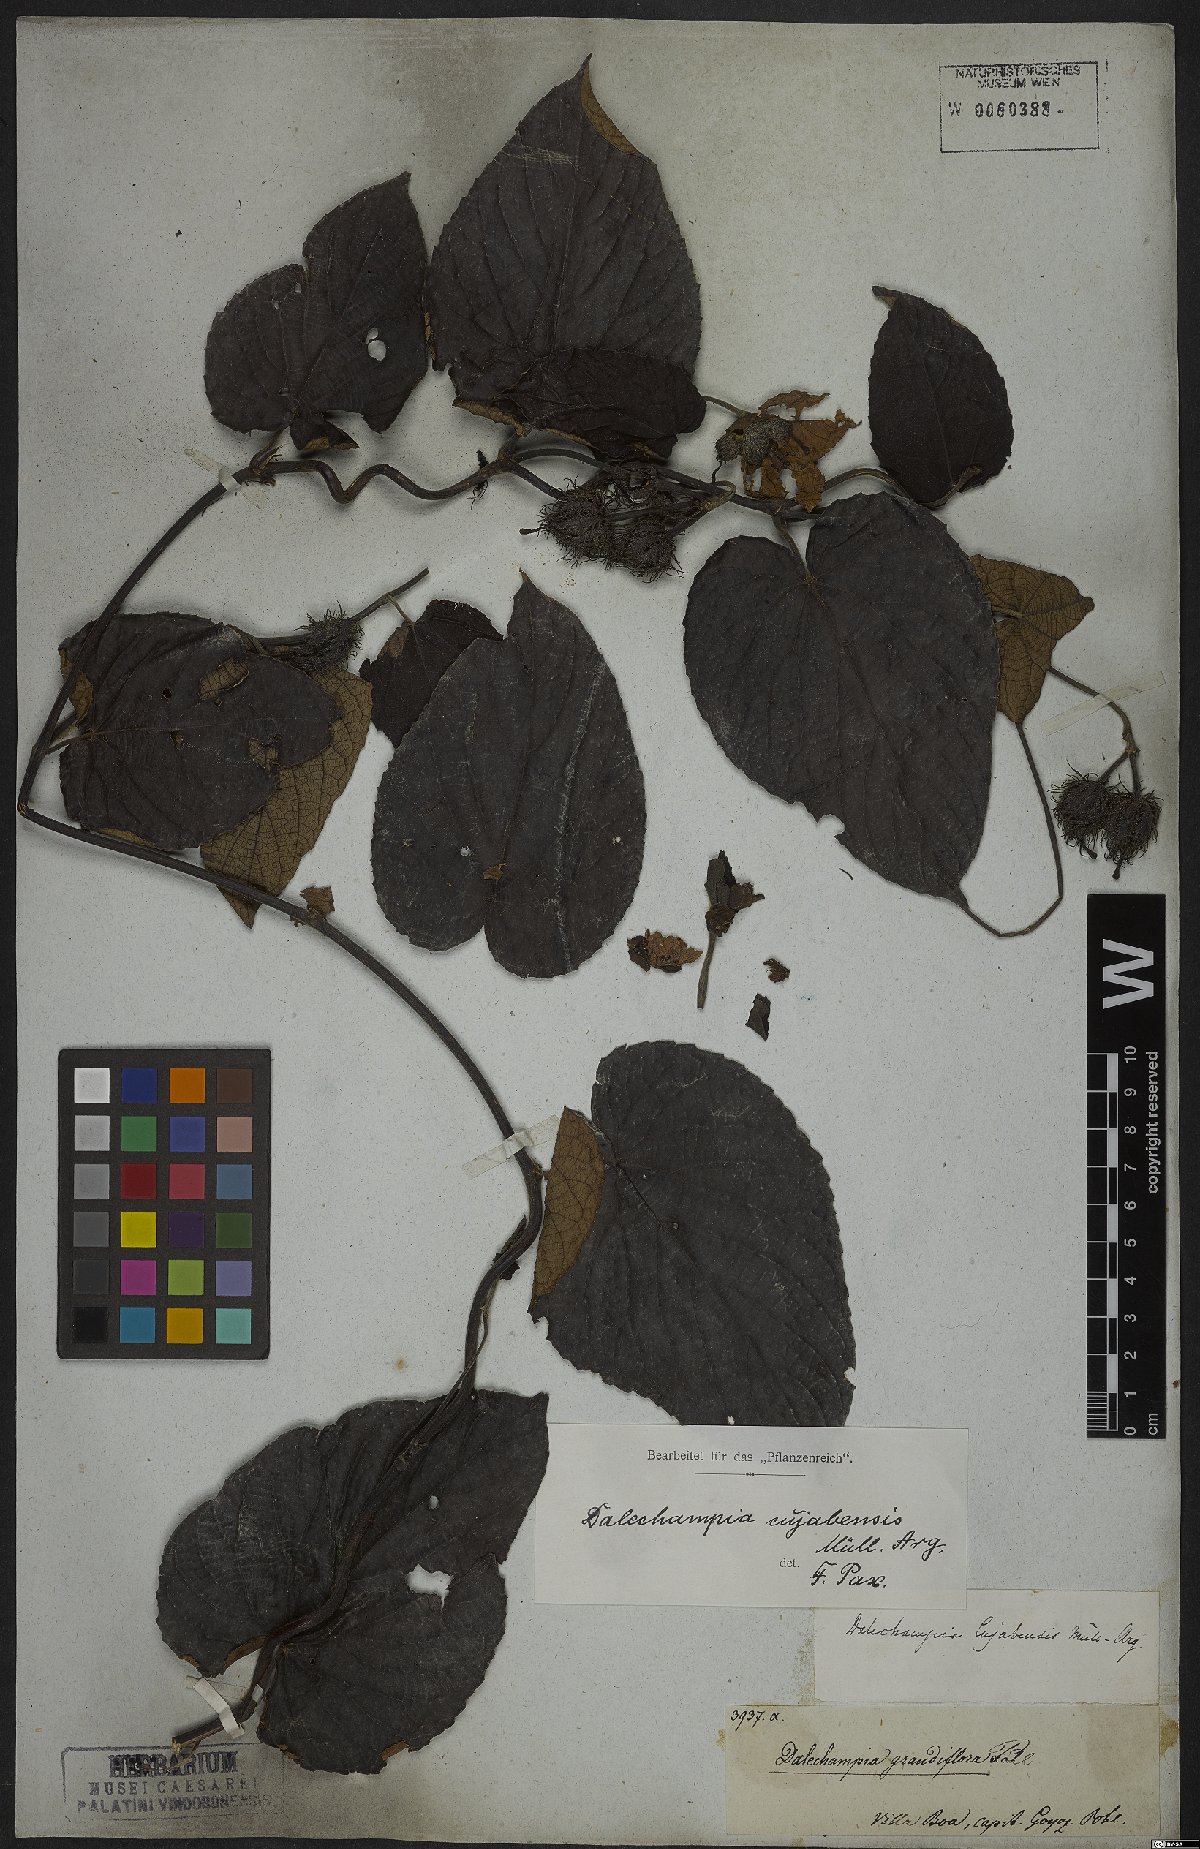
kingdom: Plantae
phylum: Tracheophyta
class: Magnoliopsida
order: Malpighiales
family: Euphorbiaceae
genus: Dalechampia
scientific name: Dalechampia cuyabensis
